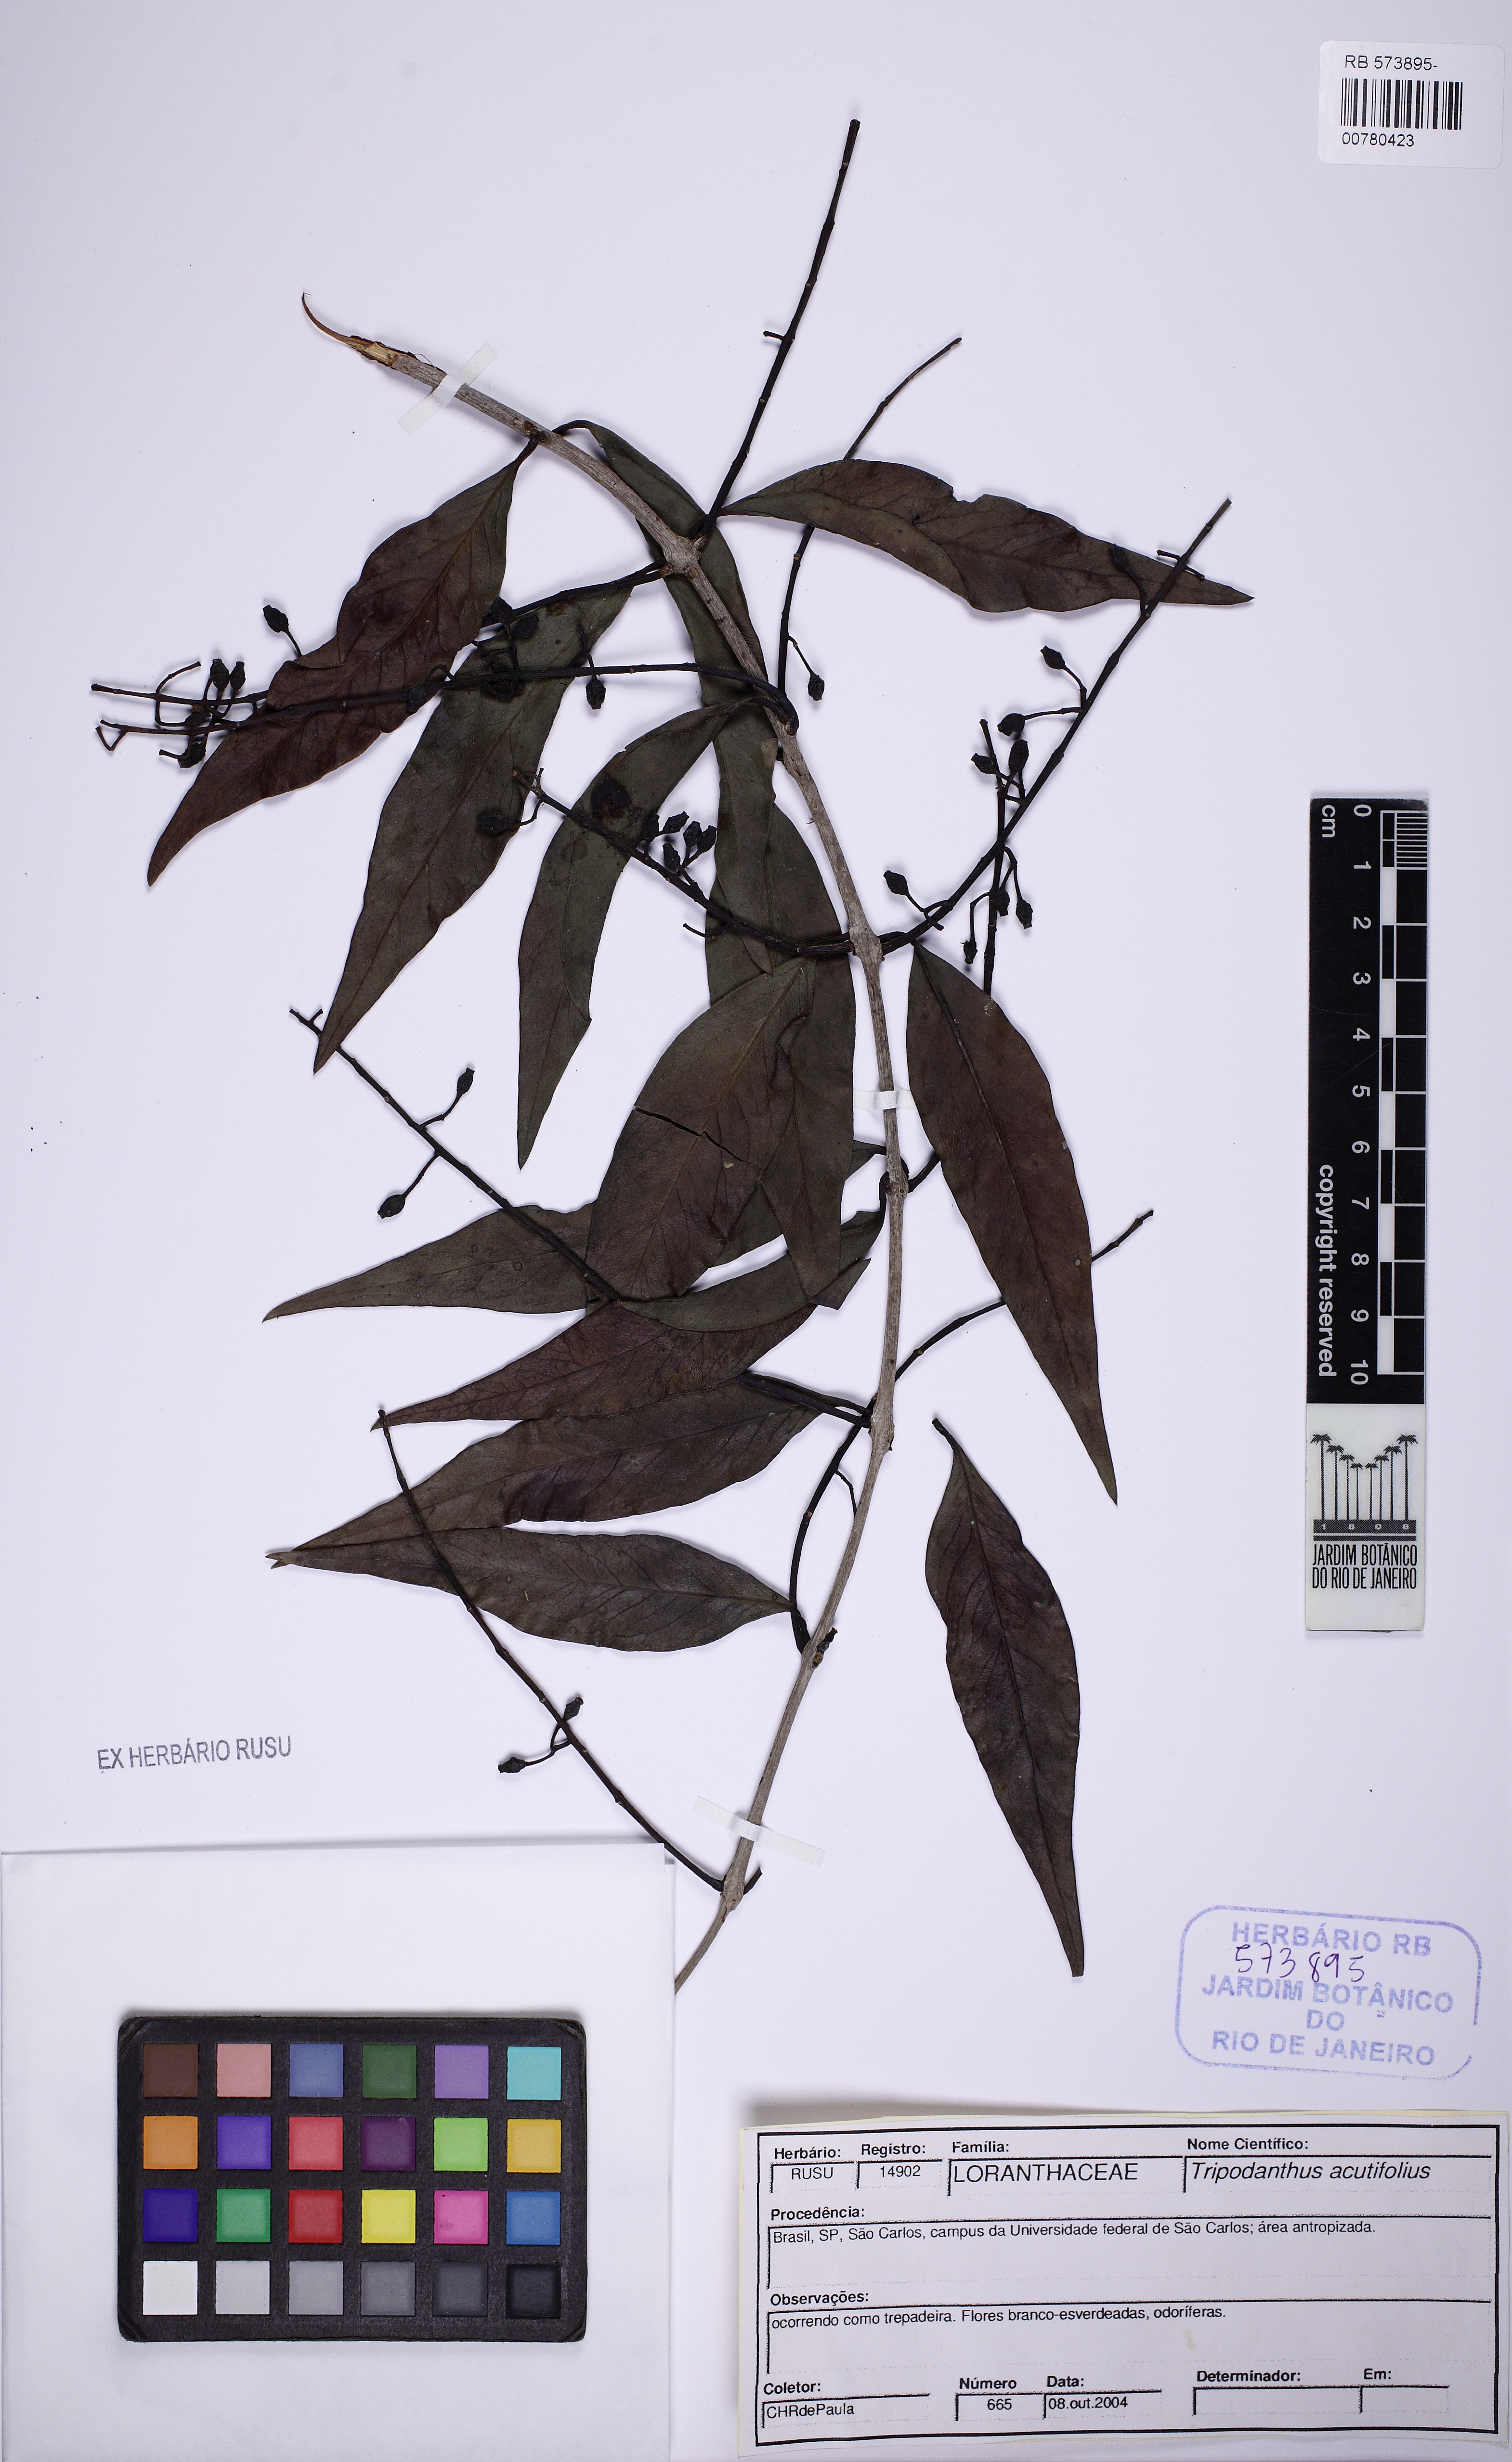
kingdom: Plantae
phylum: Tracheophyta
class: Magnoliopsida
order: Santalales
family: Loranthaceae
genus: Tripodanthus
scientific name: Tripodanthus acutifolius
